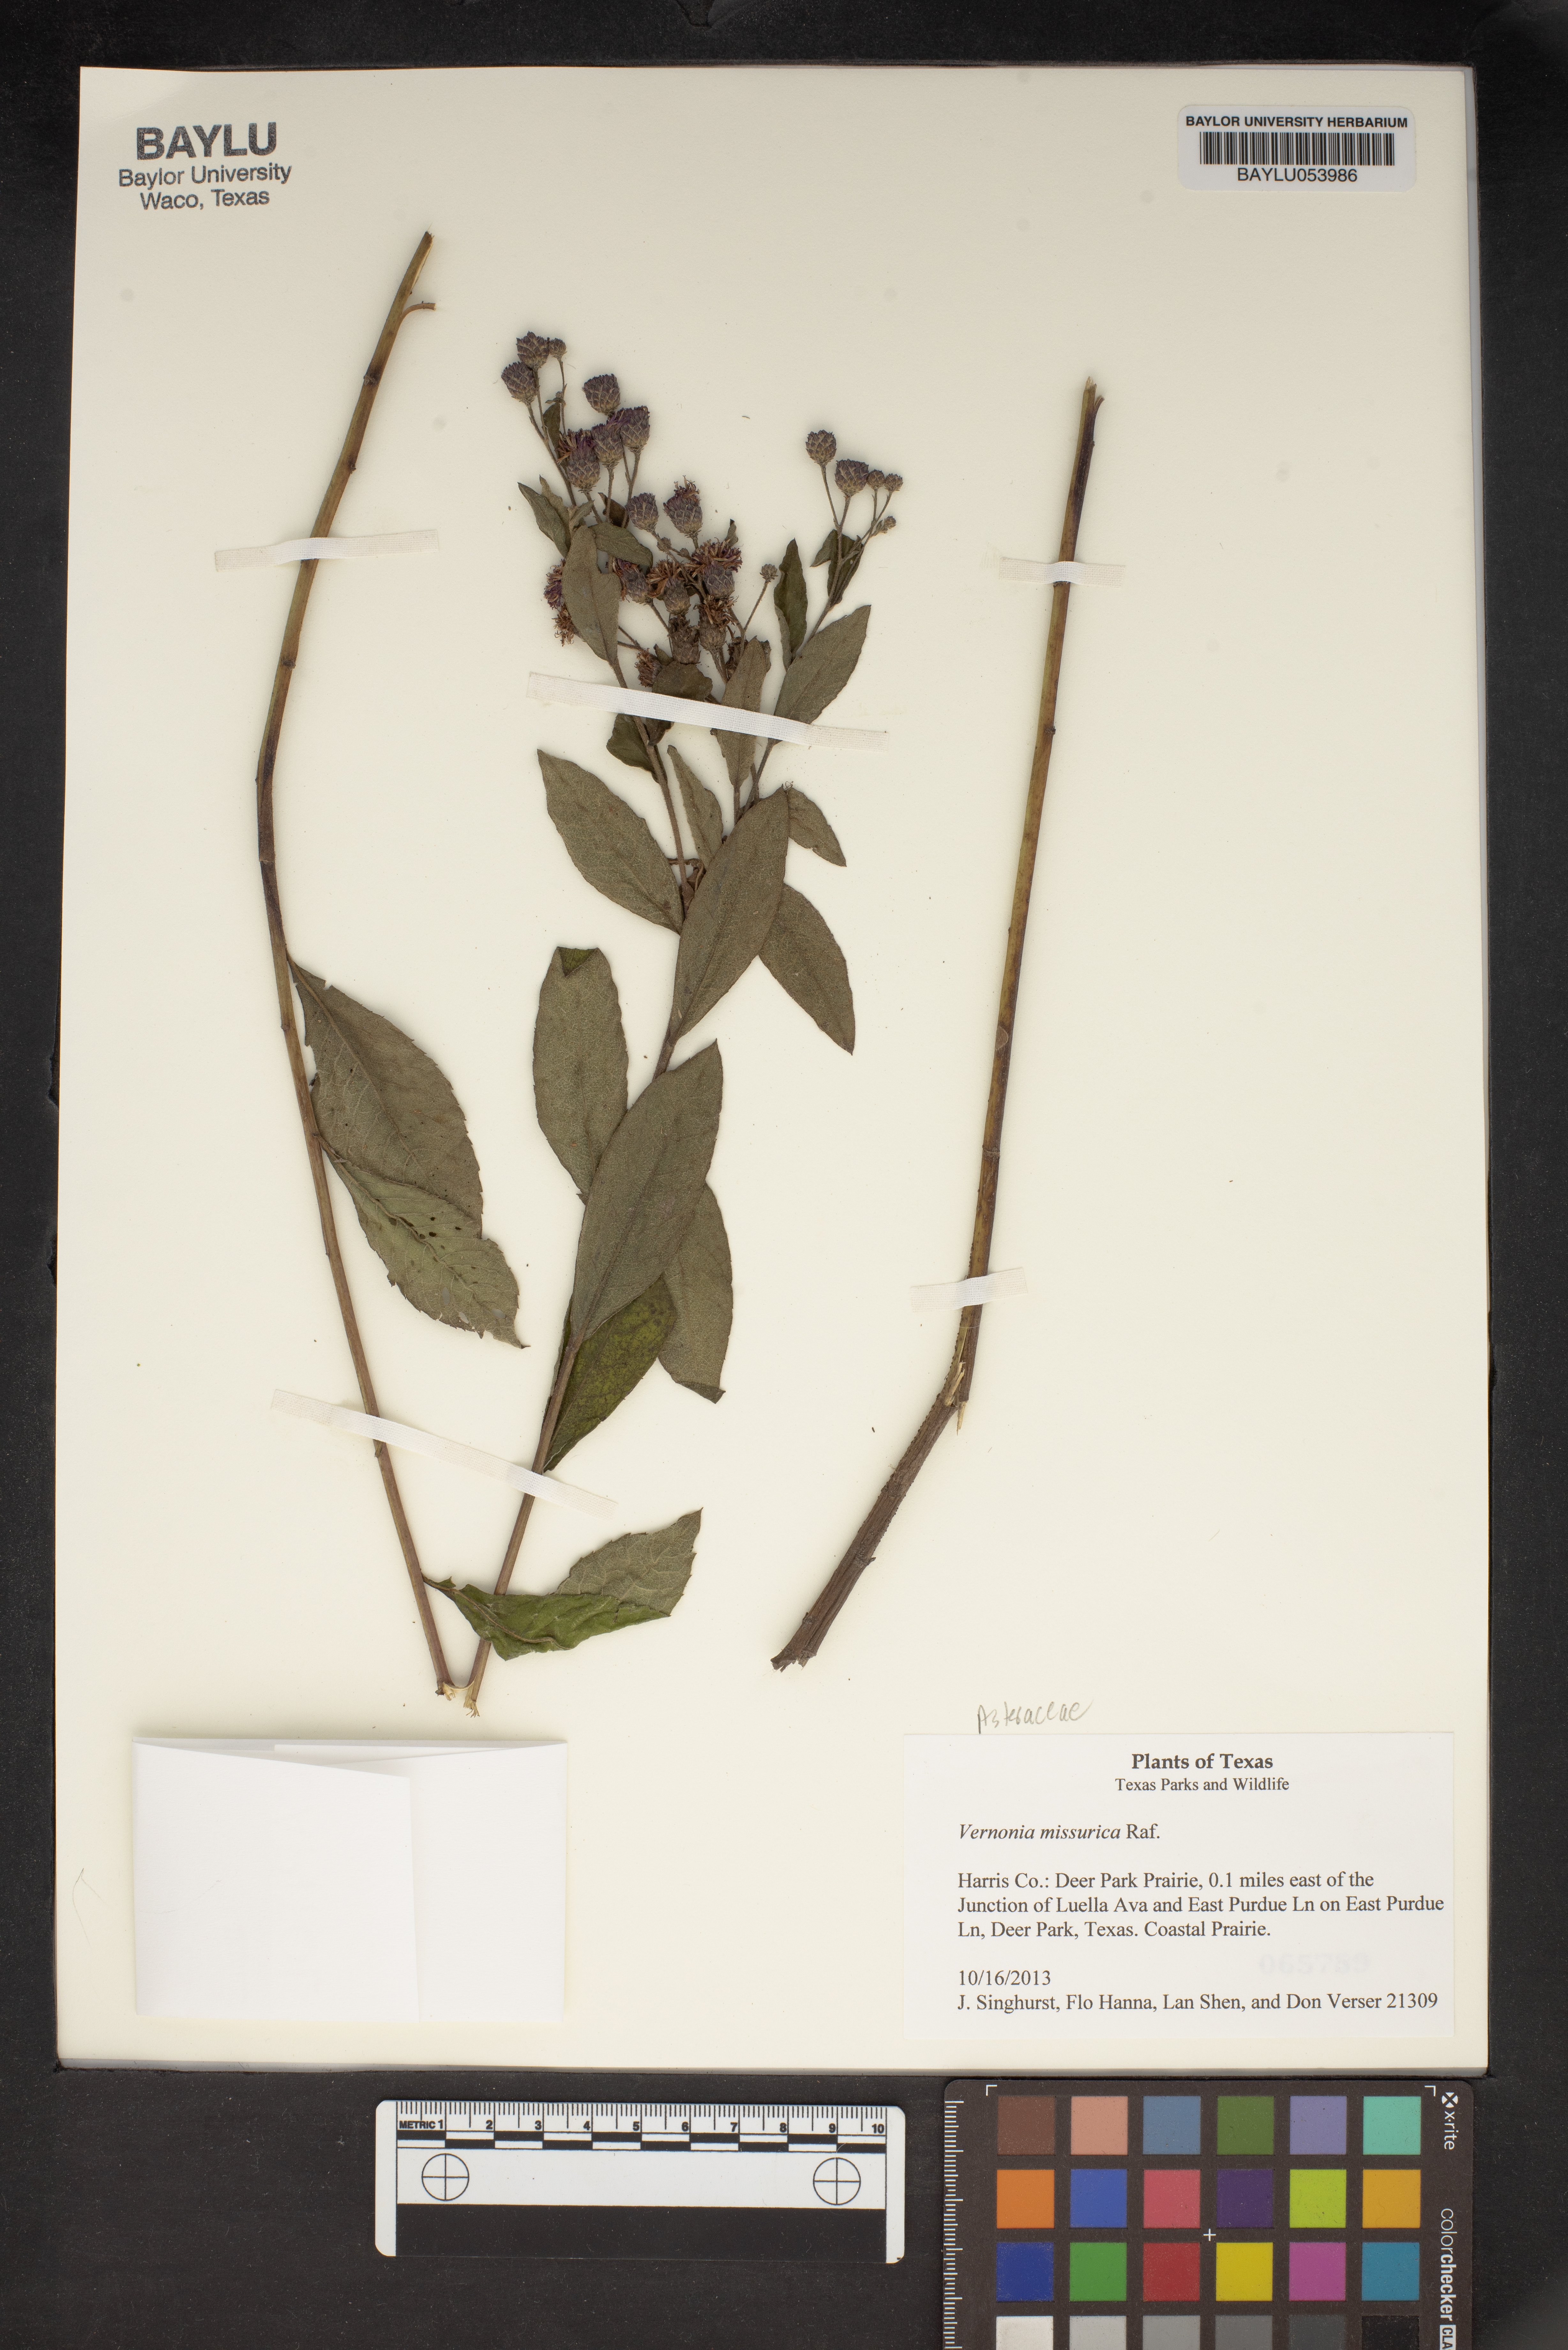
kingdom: Plantae
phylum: Tracheophyta
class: Magnoliopsida
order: Asterales
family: Asteraceae
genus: Vernonia
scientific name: Vernonia missurica
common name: Missouri ironweed
